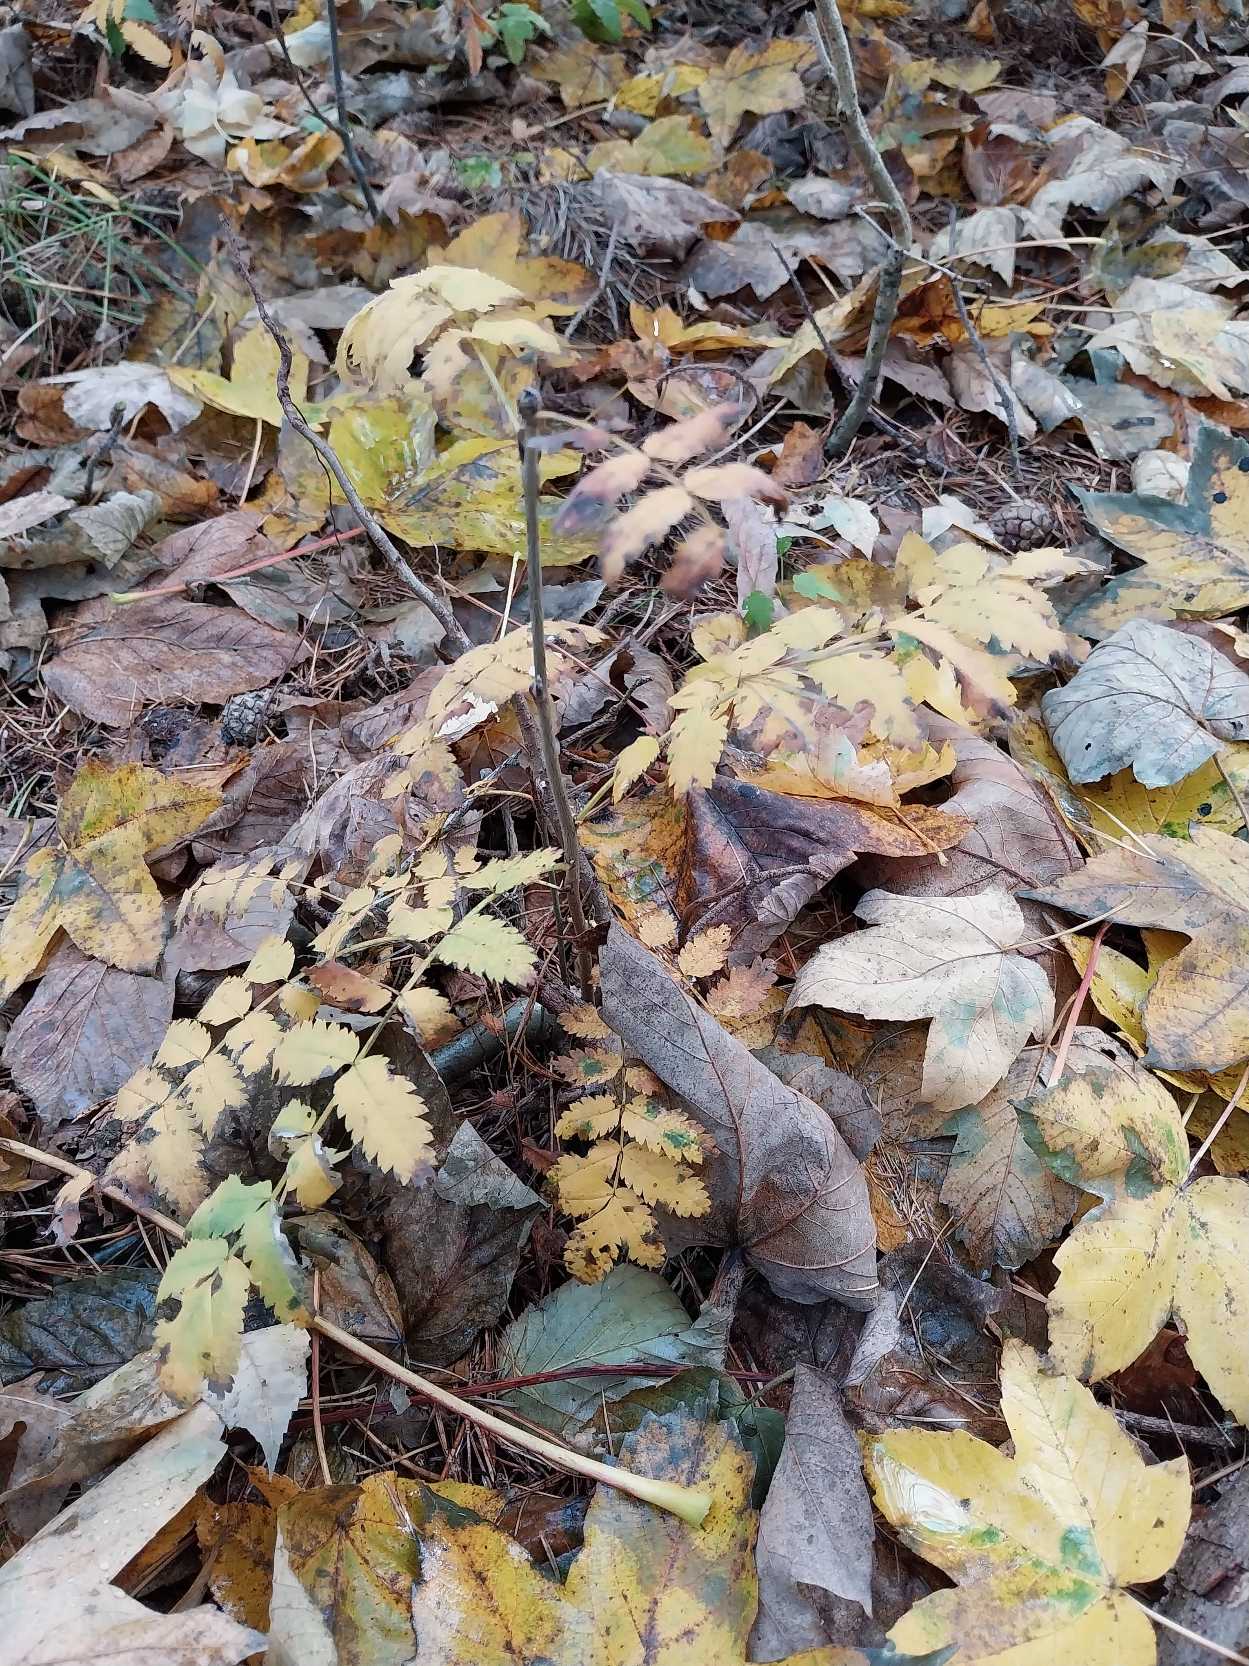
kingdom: Plantae
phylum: Tracheophyta
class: Magnoliopsida
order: Rosales
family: Rosaceae
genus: Sorbus
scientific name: Sorbus aucuparia
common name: Almindelig røn
